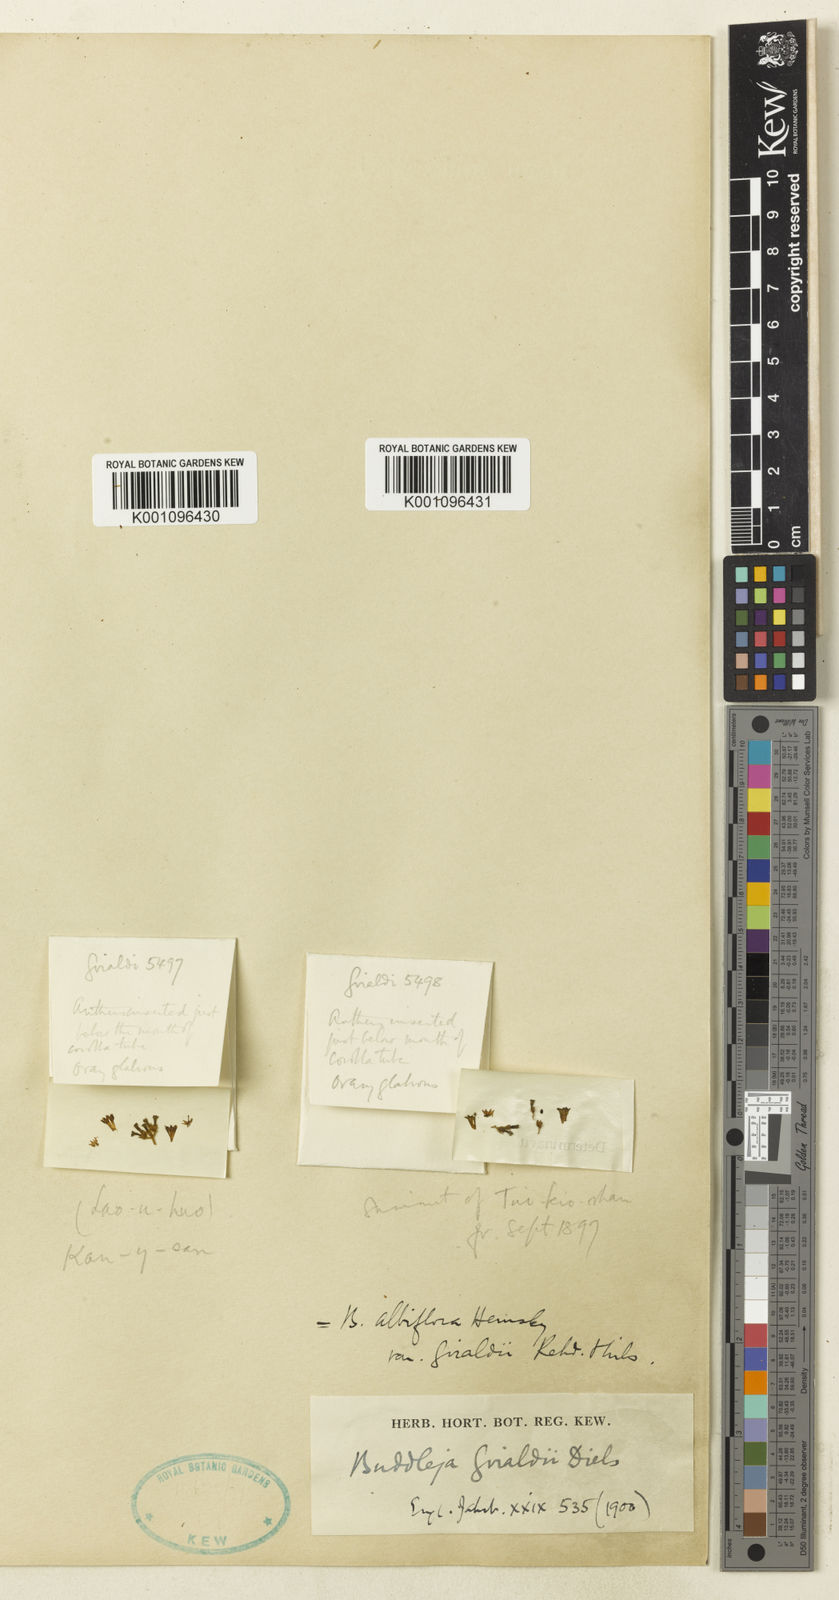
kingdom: Plantae
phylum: Tracheophyta
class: Magnoliopsida
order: Lamiales
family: Scrophulariaceae
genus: Buddleja
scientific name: Buddleja albiflora
